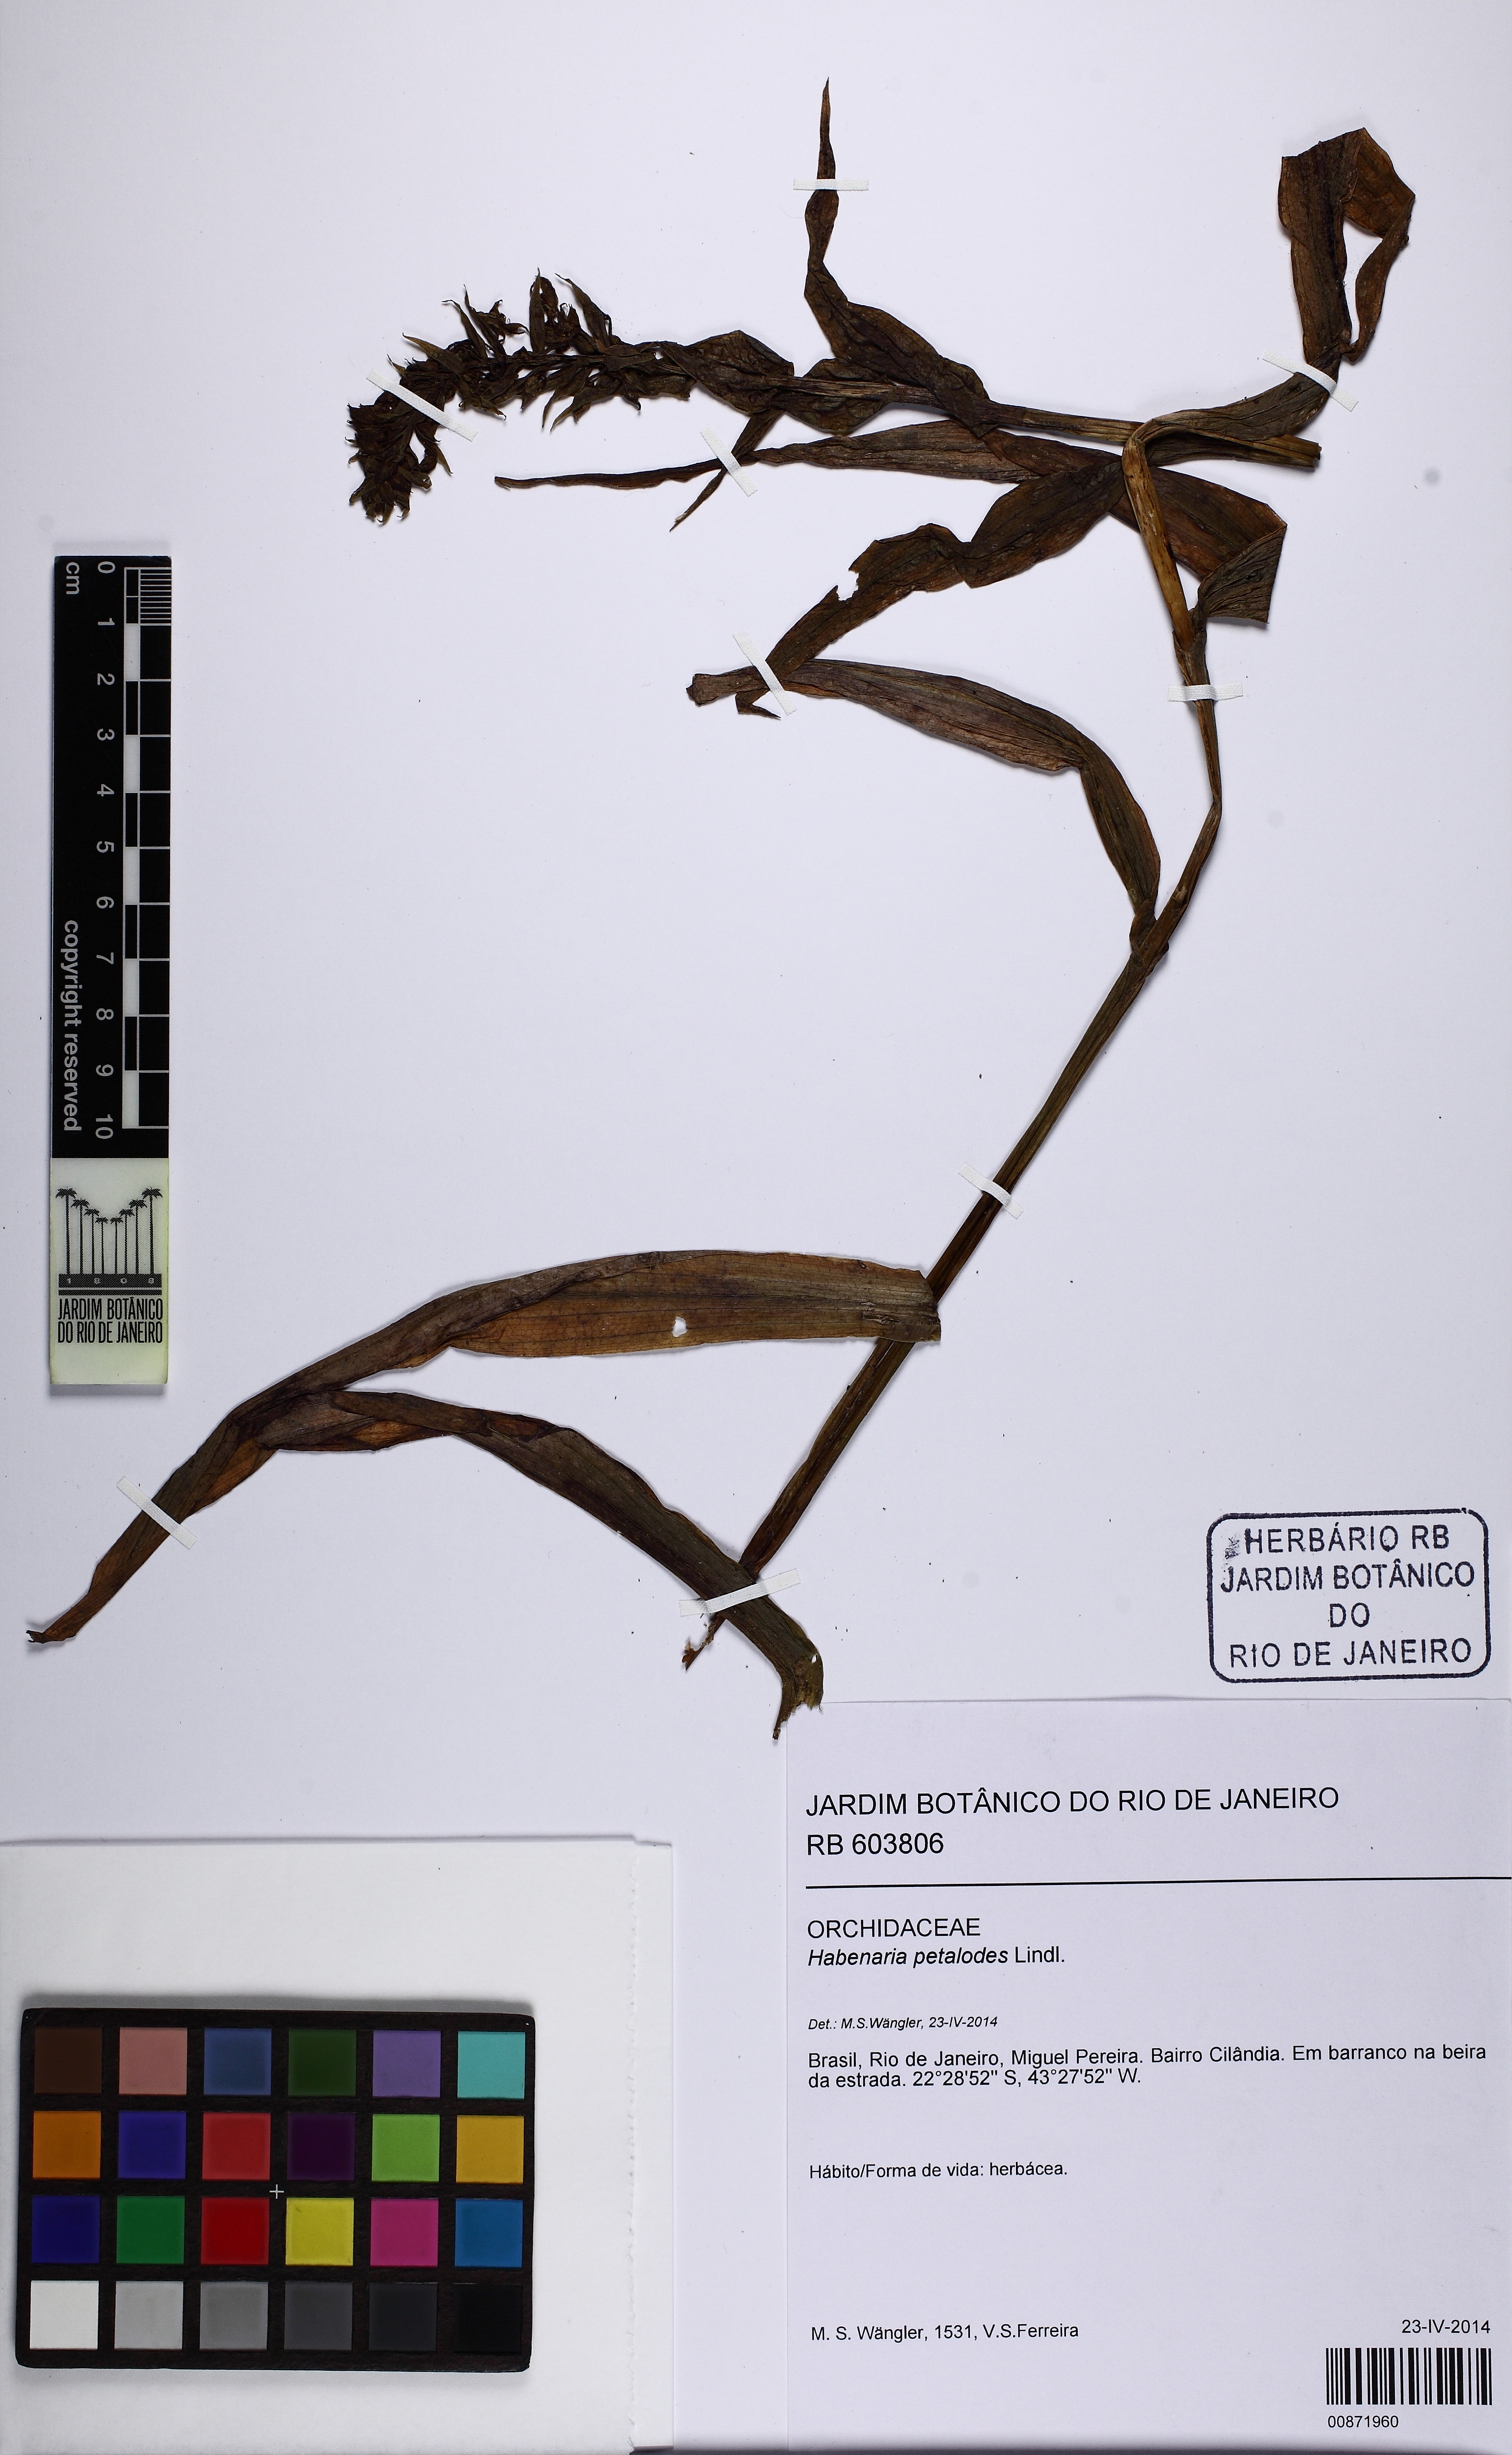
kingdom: Plantae
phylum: Tracheophyta
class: Liliopsida
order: Asparagales
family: Orchidaceae
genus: Habenaria
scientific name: Habenaria petalodes
